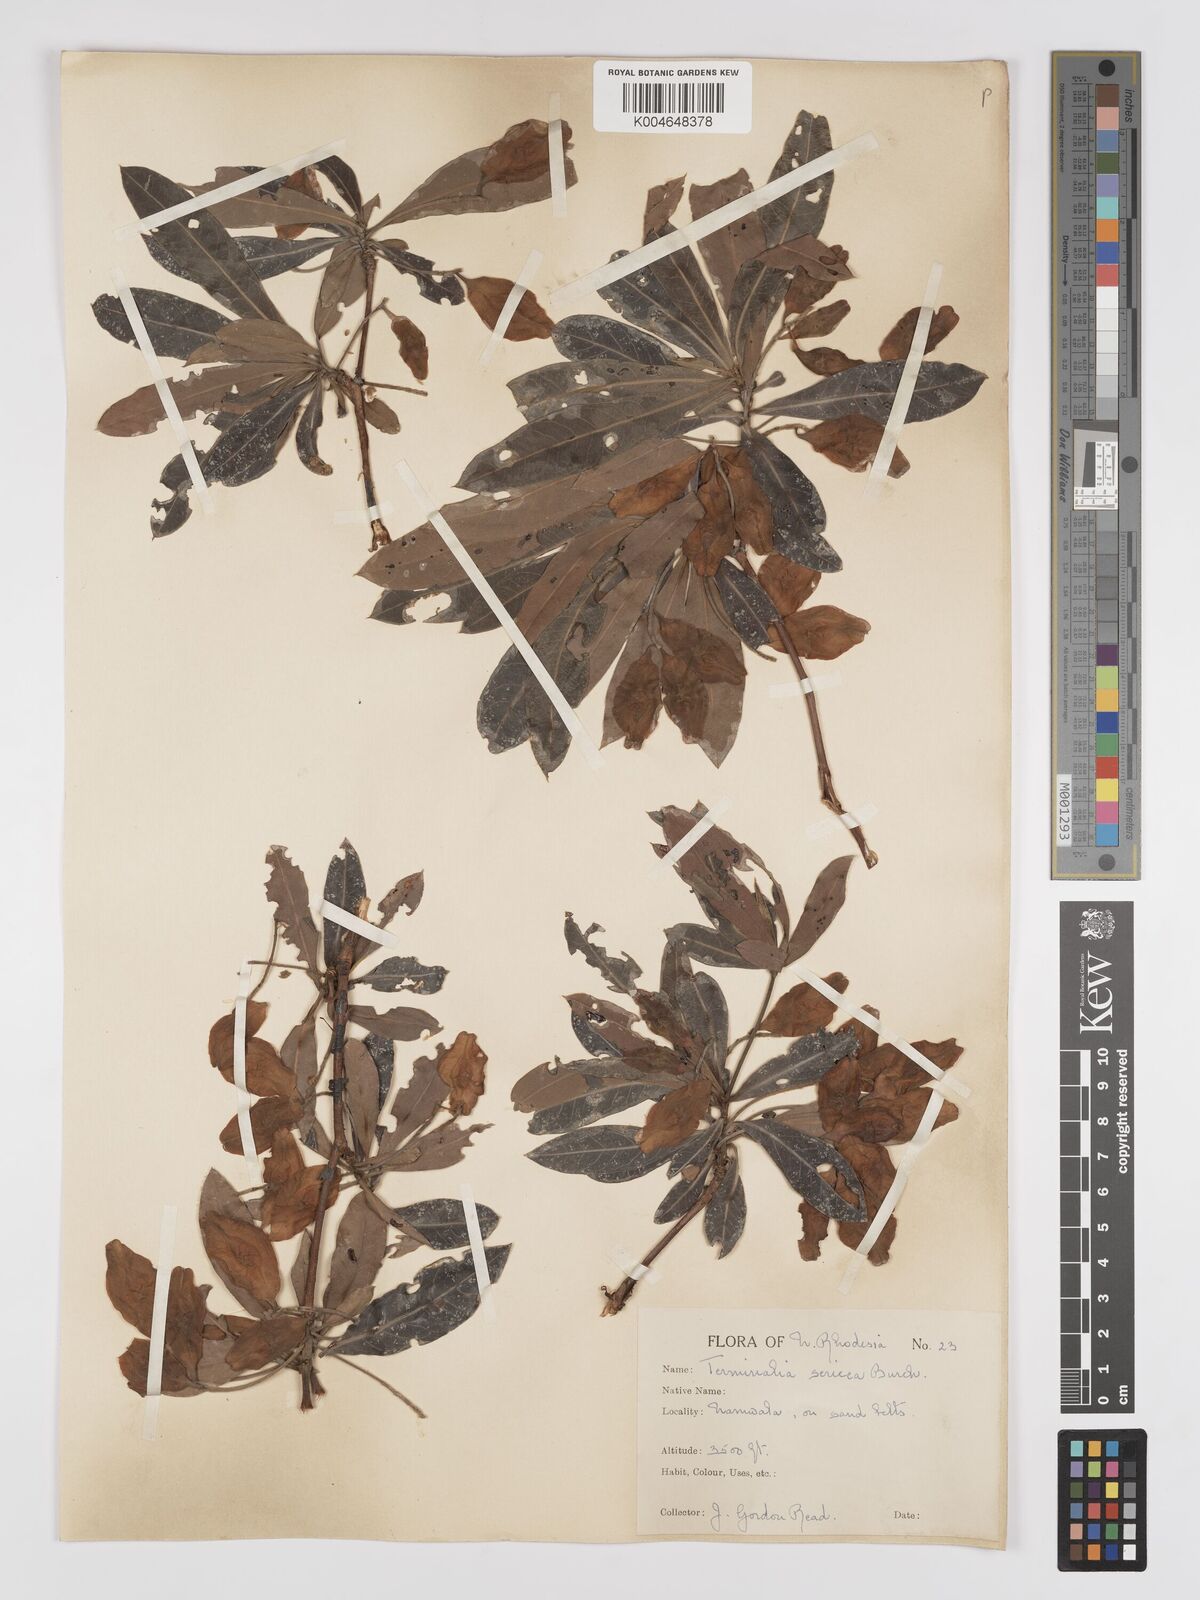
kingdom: Plantae
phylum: Tracheophyta
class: Magnoliopsida
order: Myrtales
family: Combretaceae
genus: Terminalia
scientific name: Terminalia
